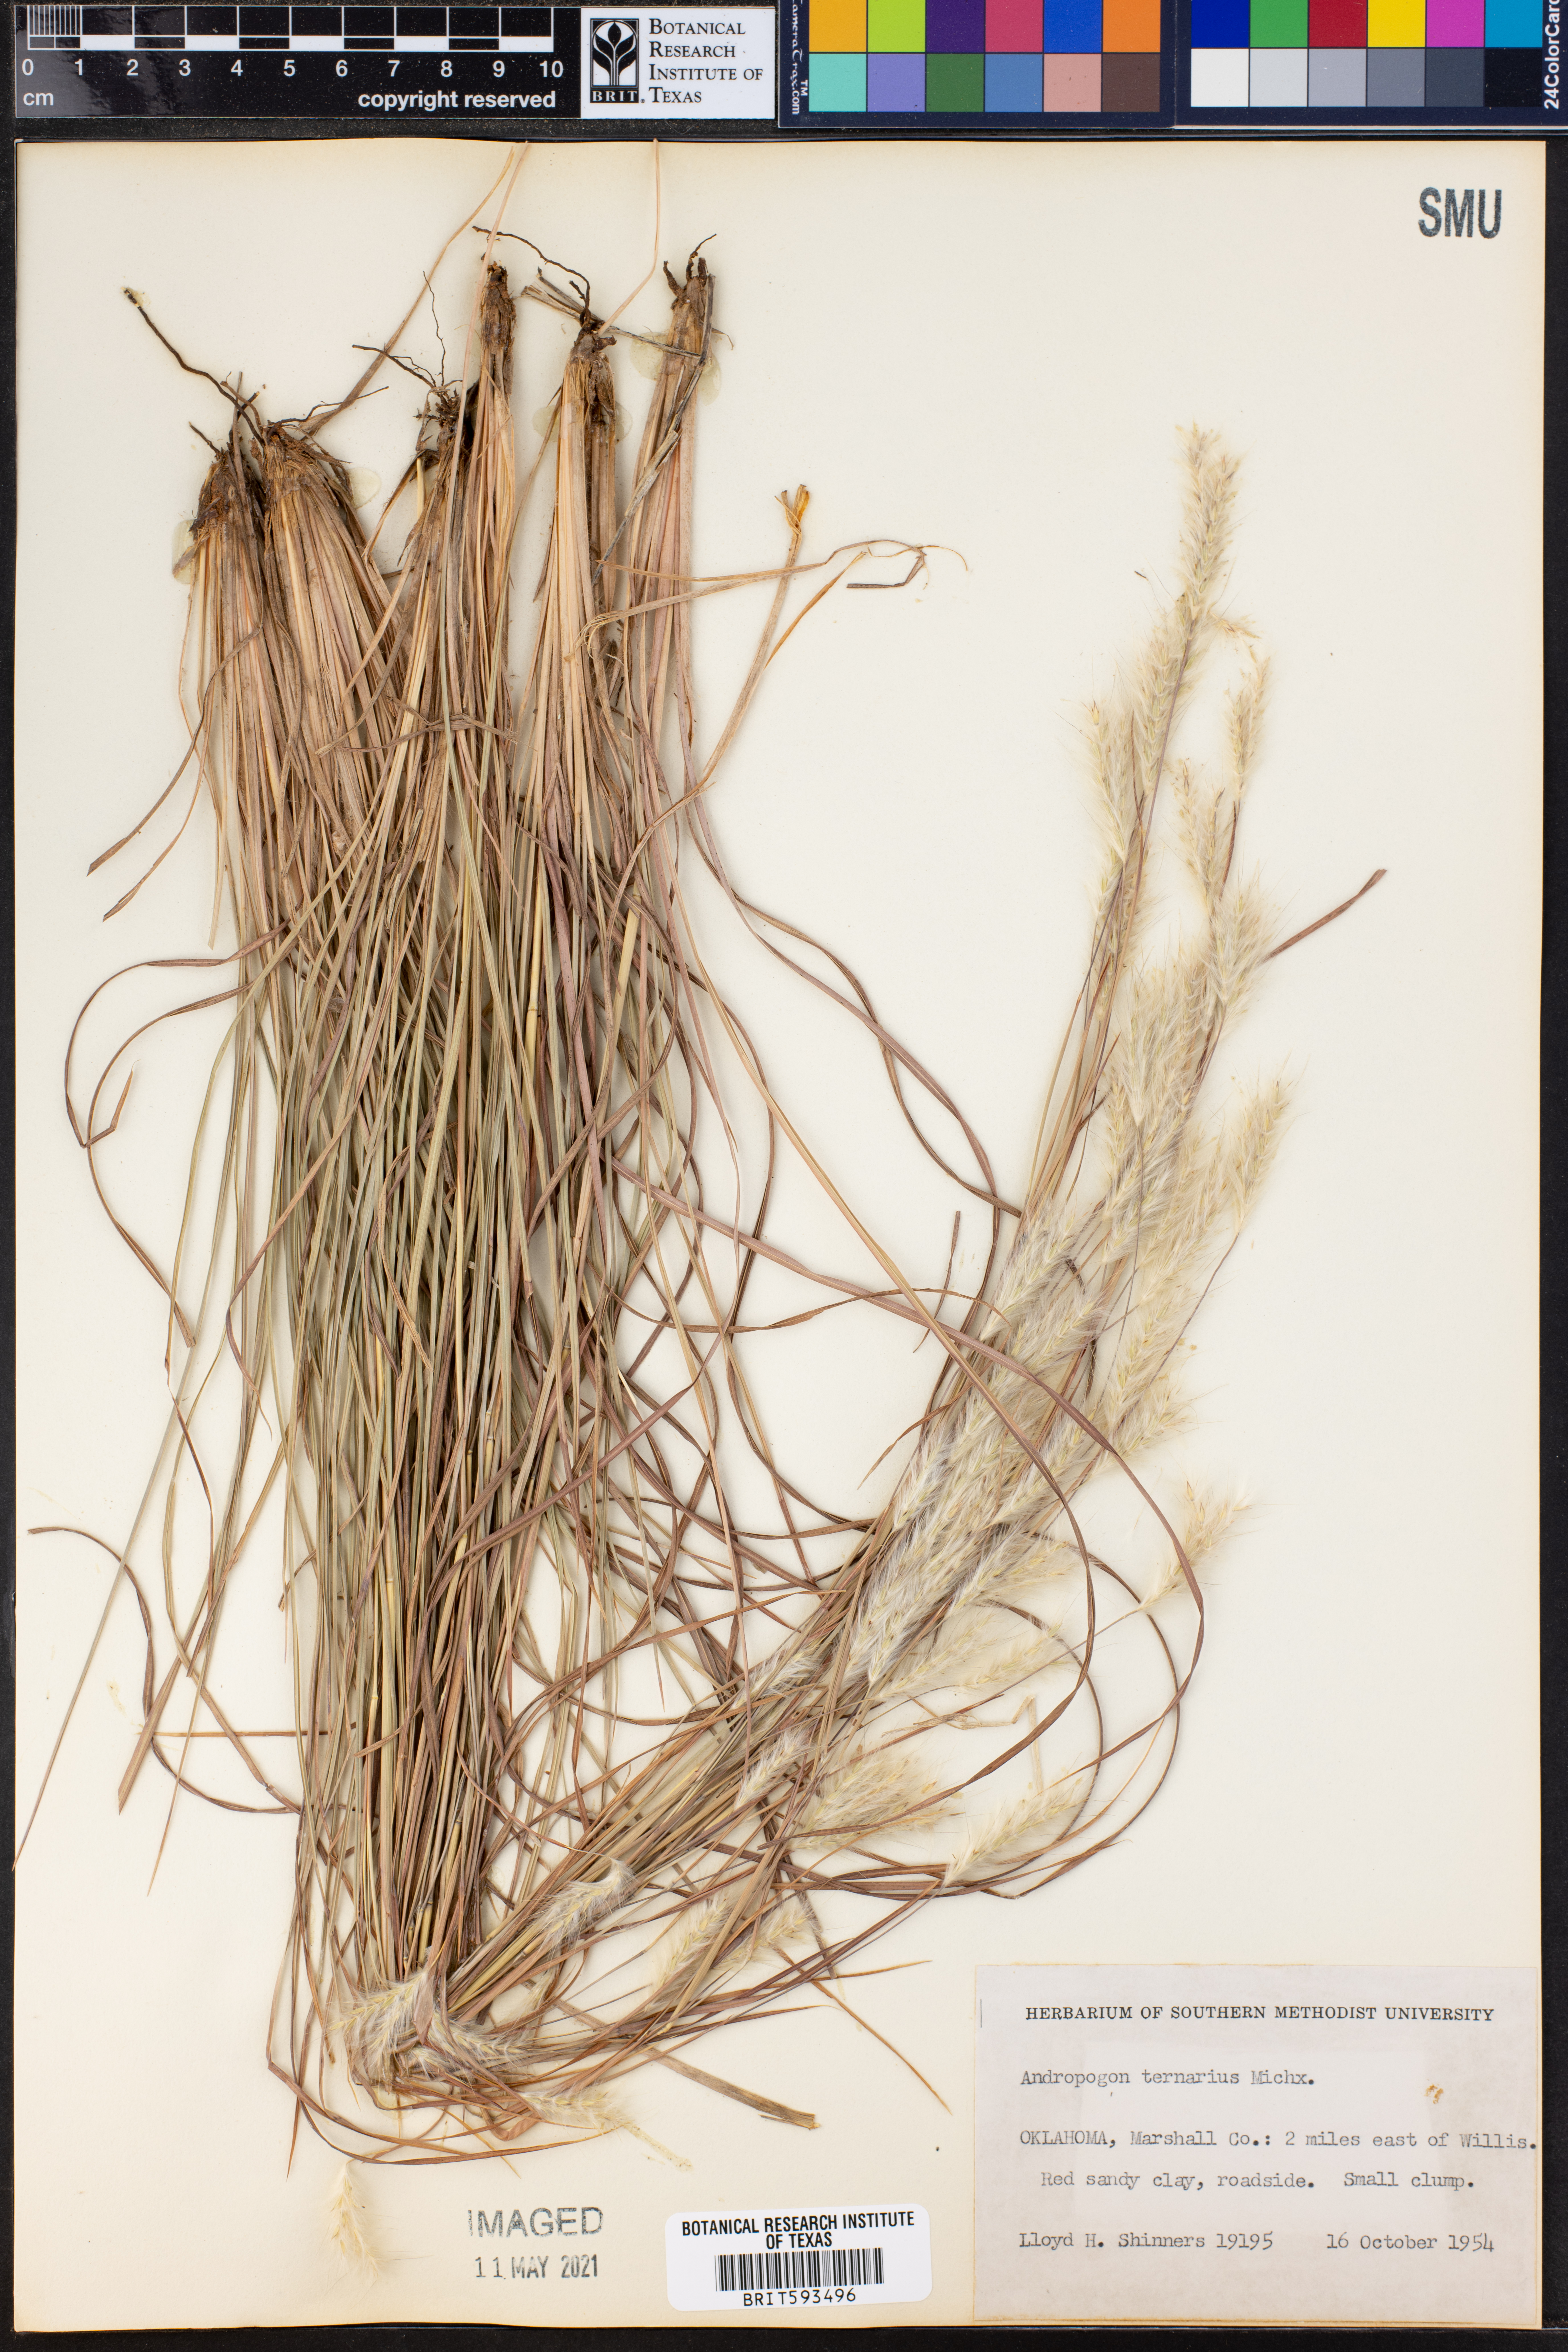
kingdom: Plantae
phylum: Tracheophyta
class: Liliopsida
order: Poales
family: Poaceae
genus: Andropogon
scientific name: Andropogon ternarius
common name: Split bluestem
